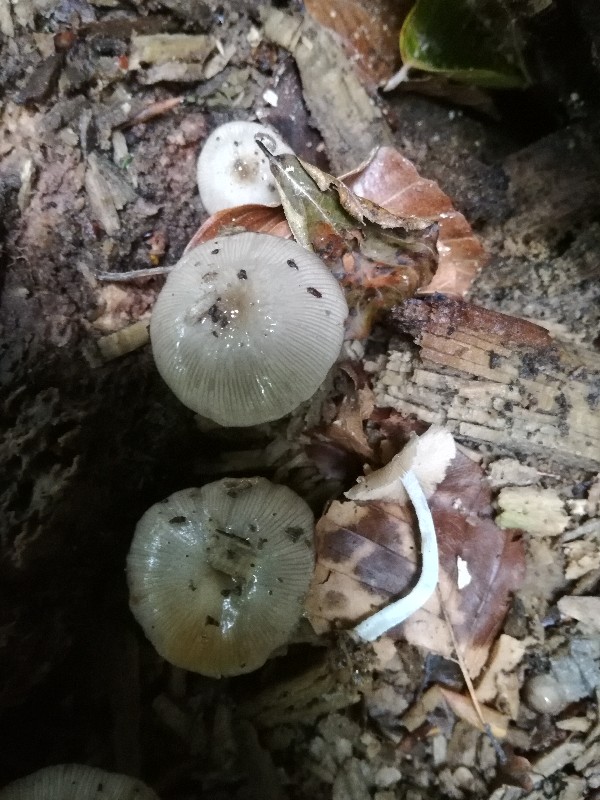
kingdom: Fungi
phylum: Basidiomycota
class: Agaricomycetes
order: Agaricales
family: Bolbitiaceae
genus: Bolbitius
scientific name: Bolbitius reticulatus
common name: netåret gulhat
